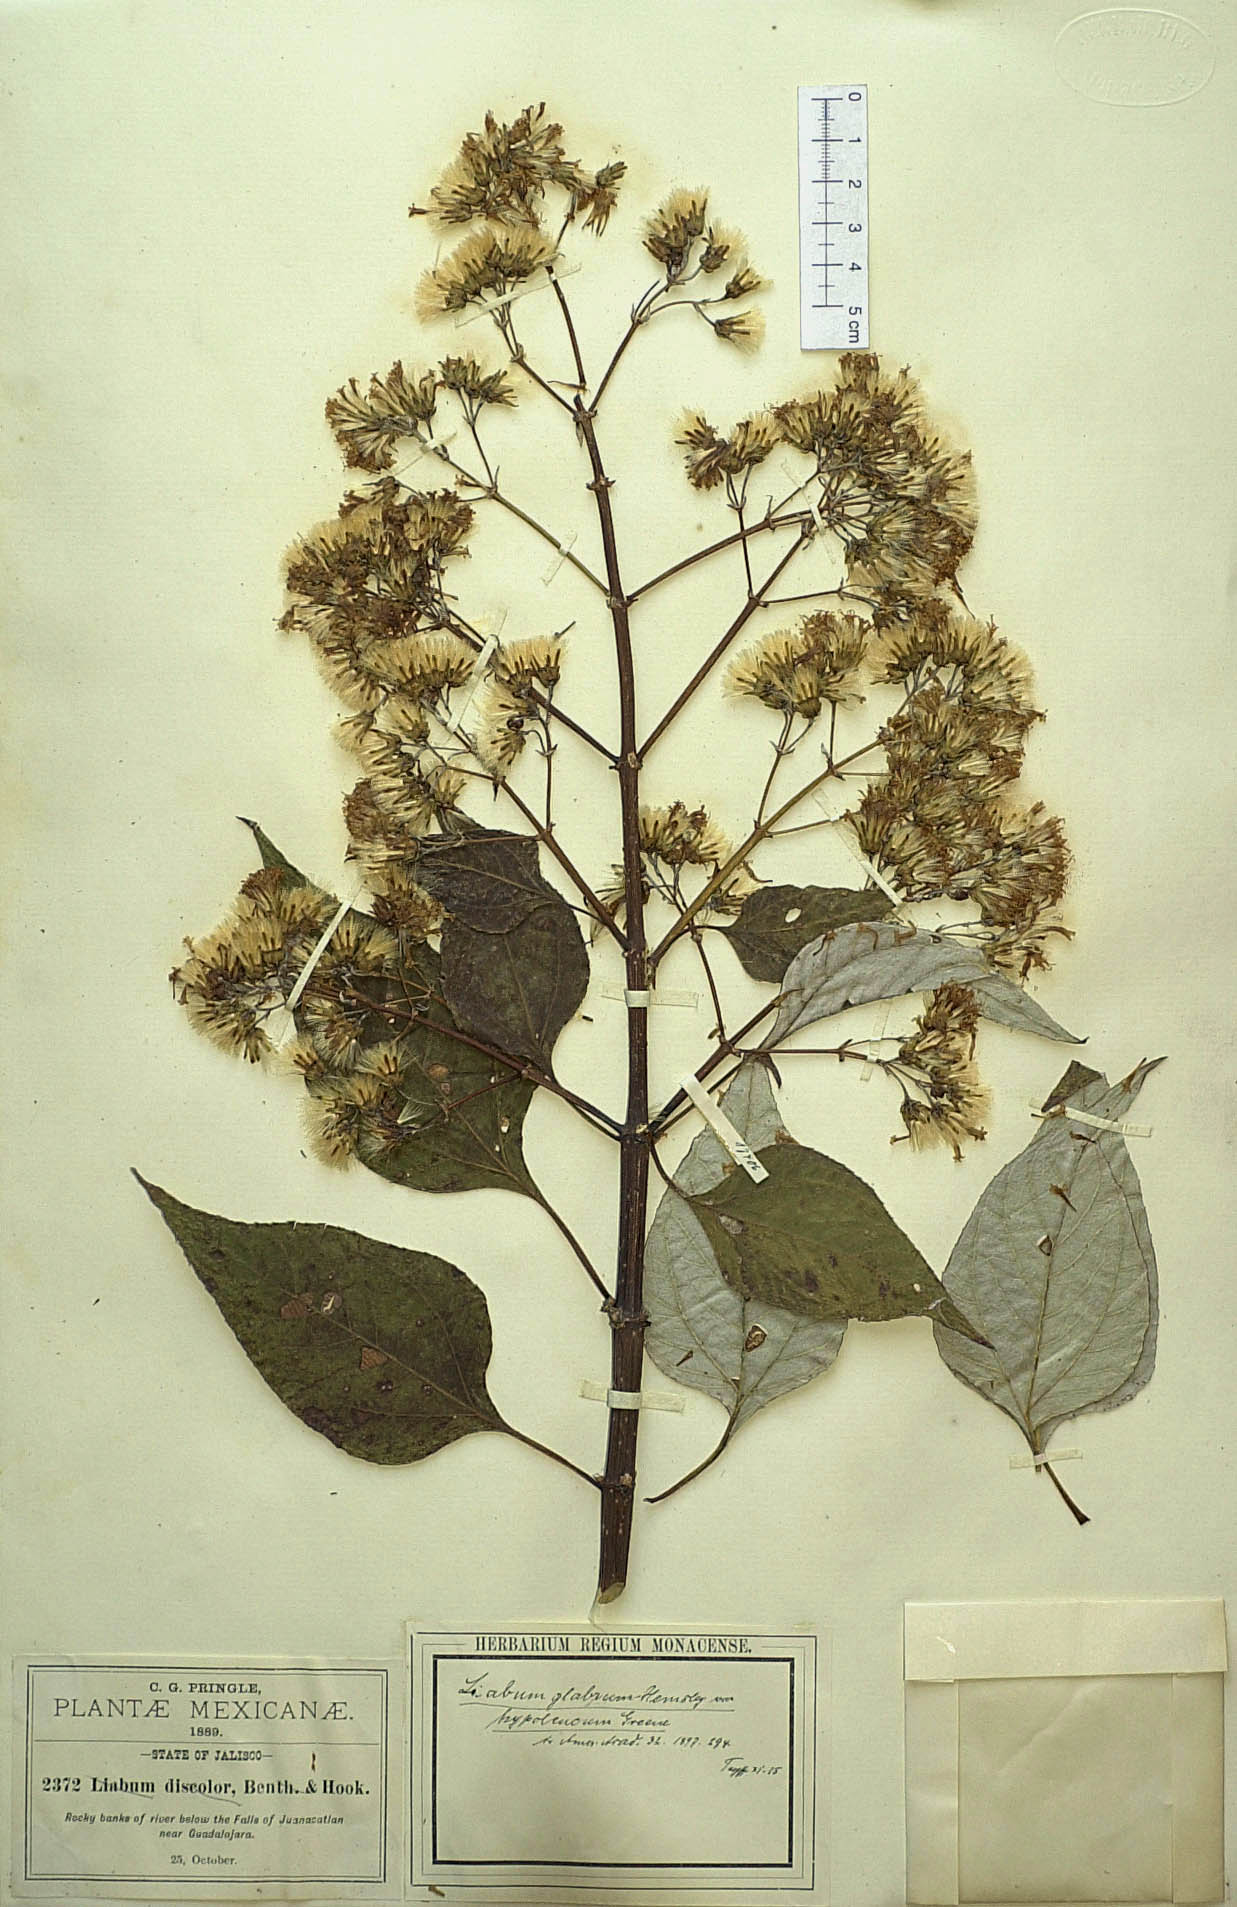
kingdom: Plantae
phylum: Tracheophyta
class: Magnoliopsida
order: Asterales
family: Asteraceae
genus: Sinclairia
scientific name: Sinclairia glabra
